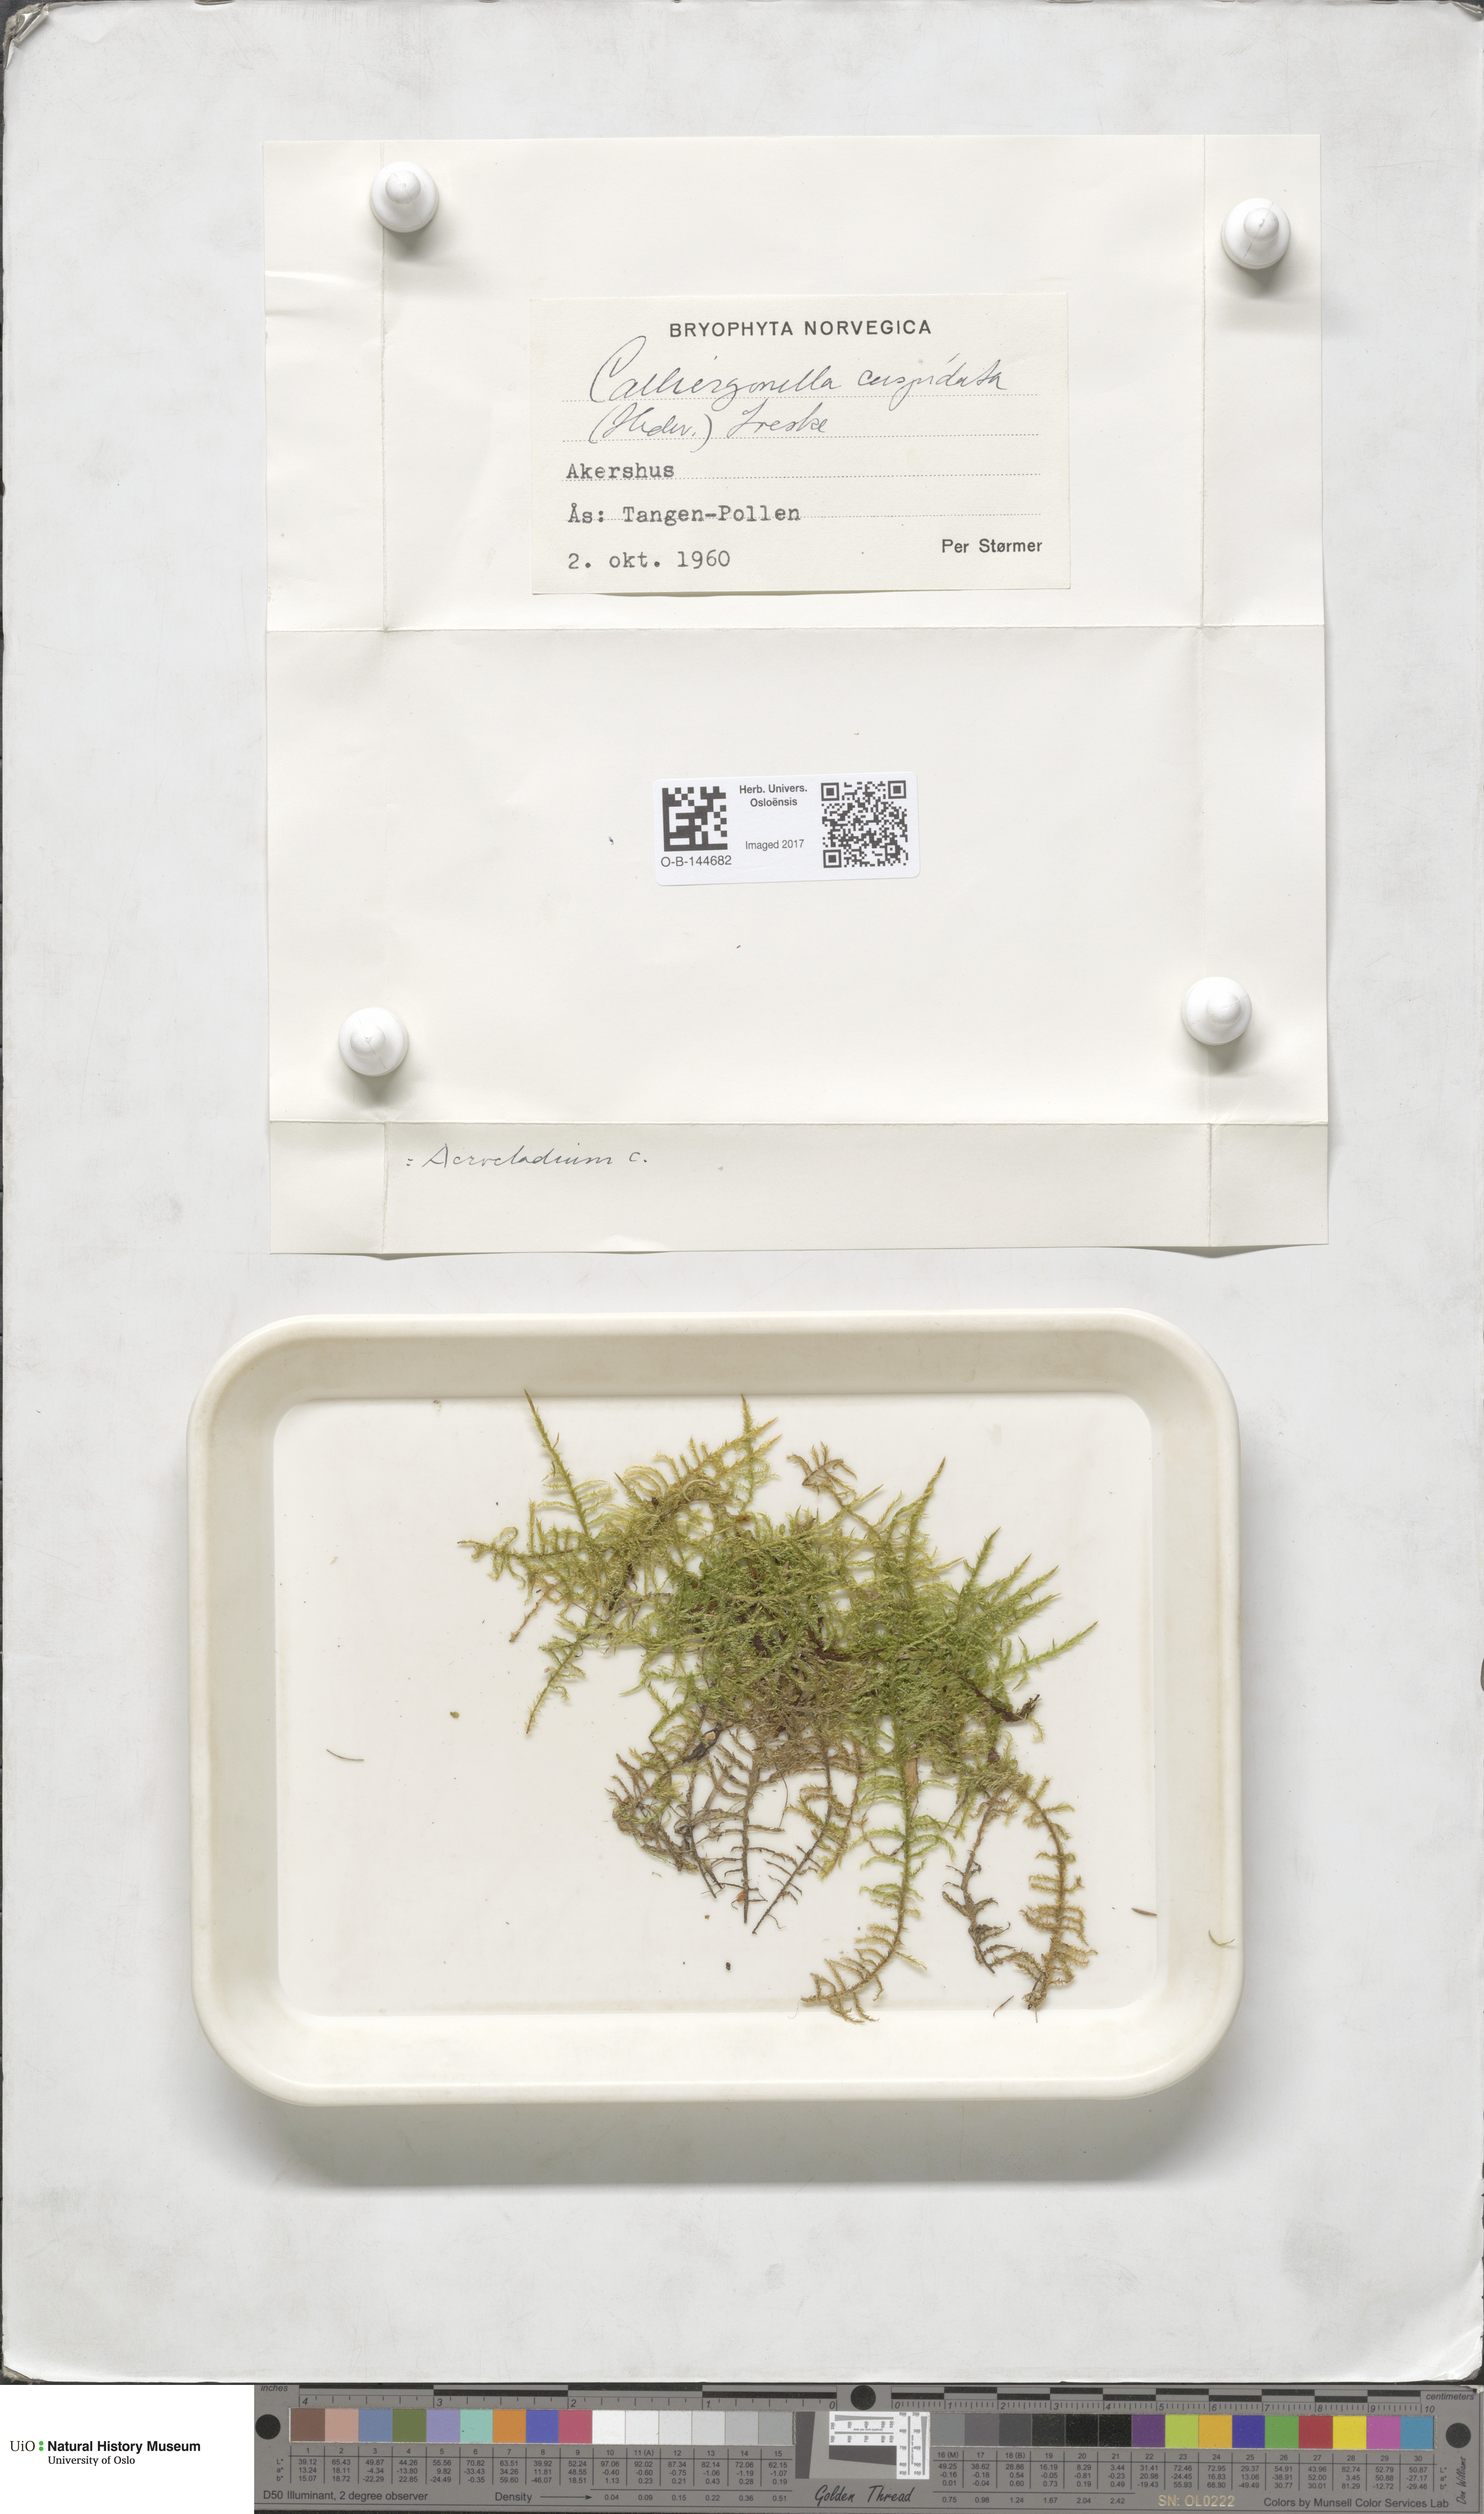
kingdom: Plantae
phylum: Bryophyta
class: Bryopsida
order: Hypnales
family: Pylaisiaceae
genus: Calliergonella
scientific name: Calliergonella cuspidata
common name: Common large wetland moss
